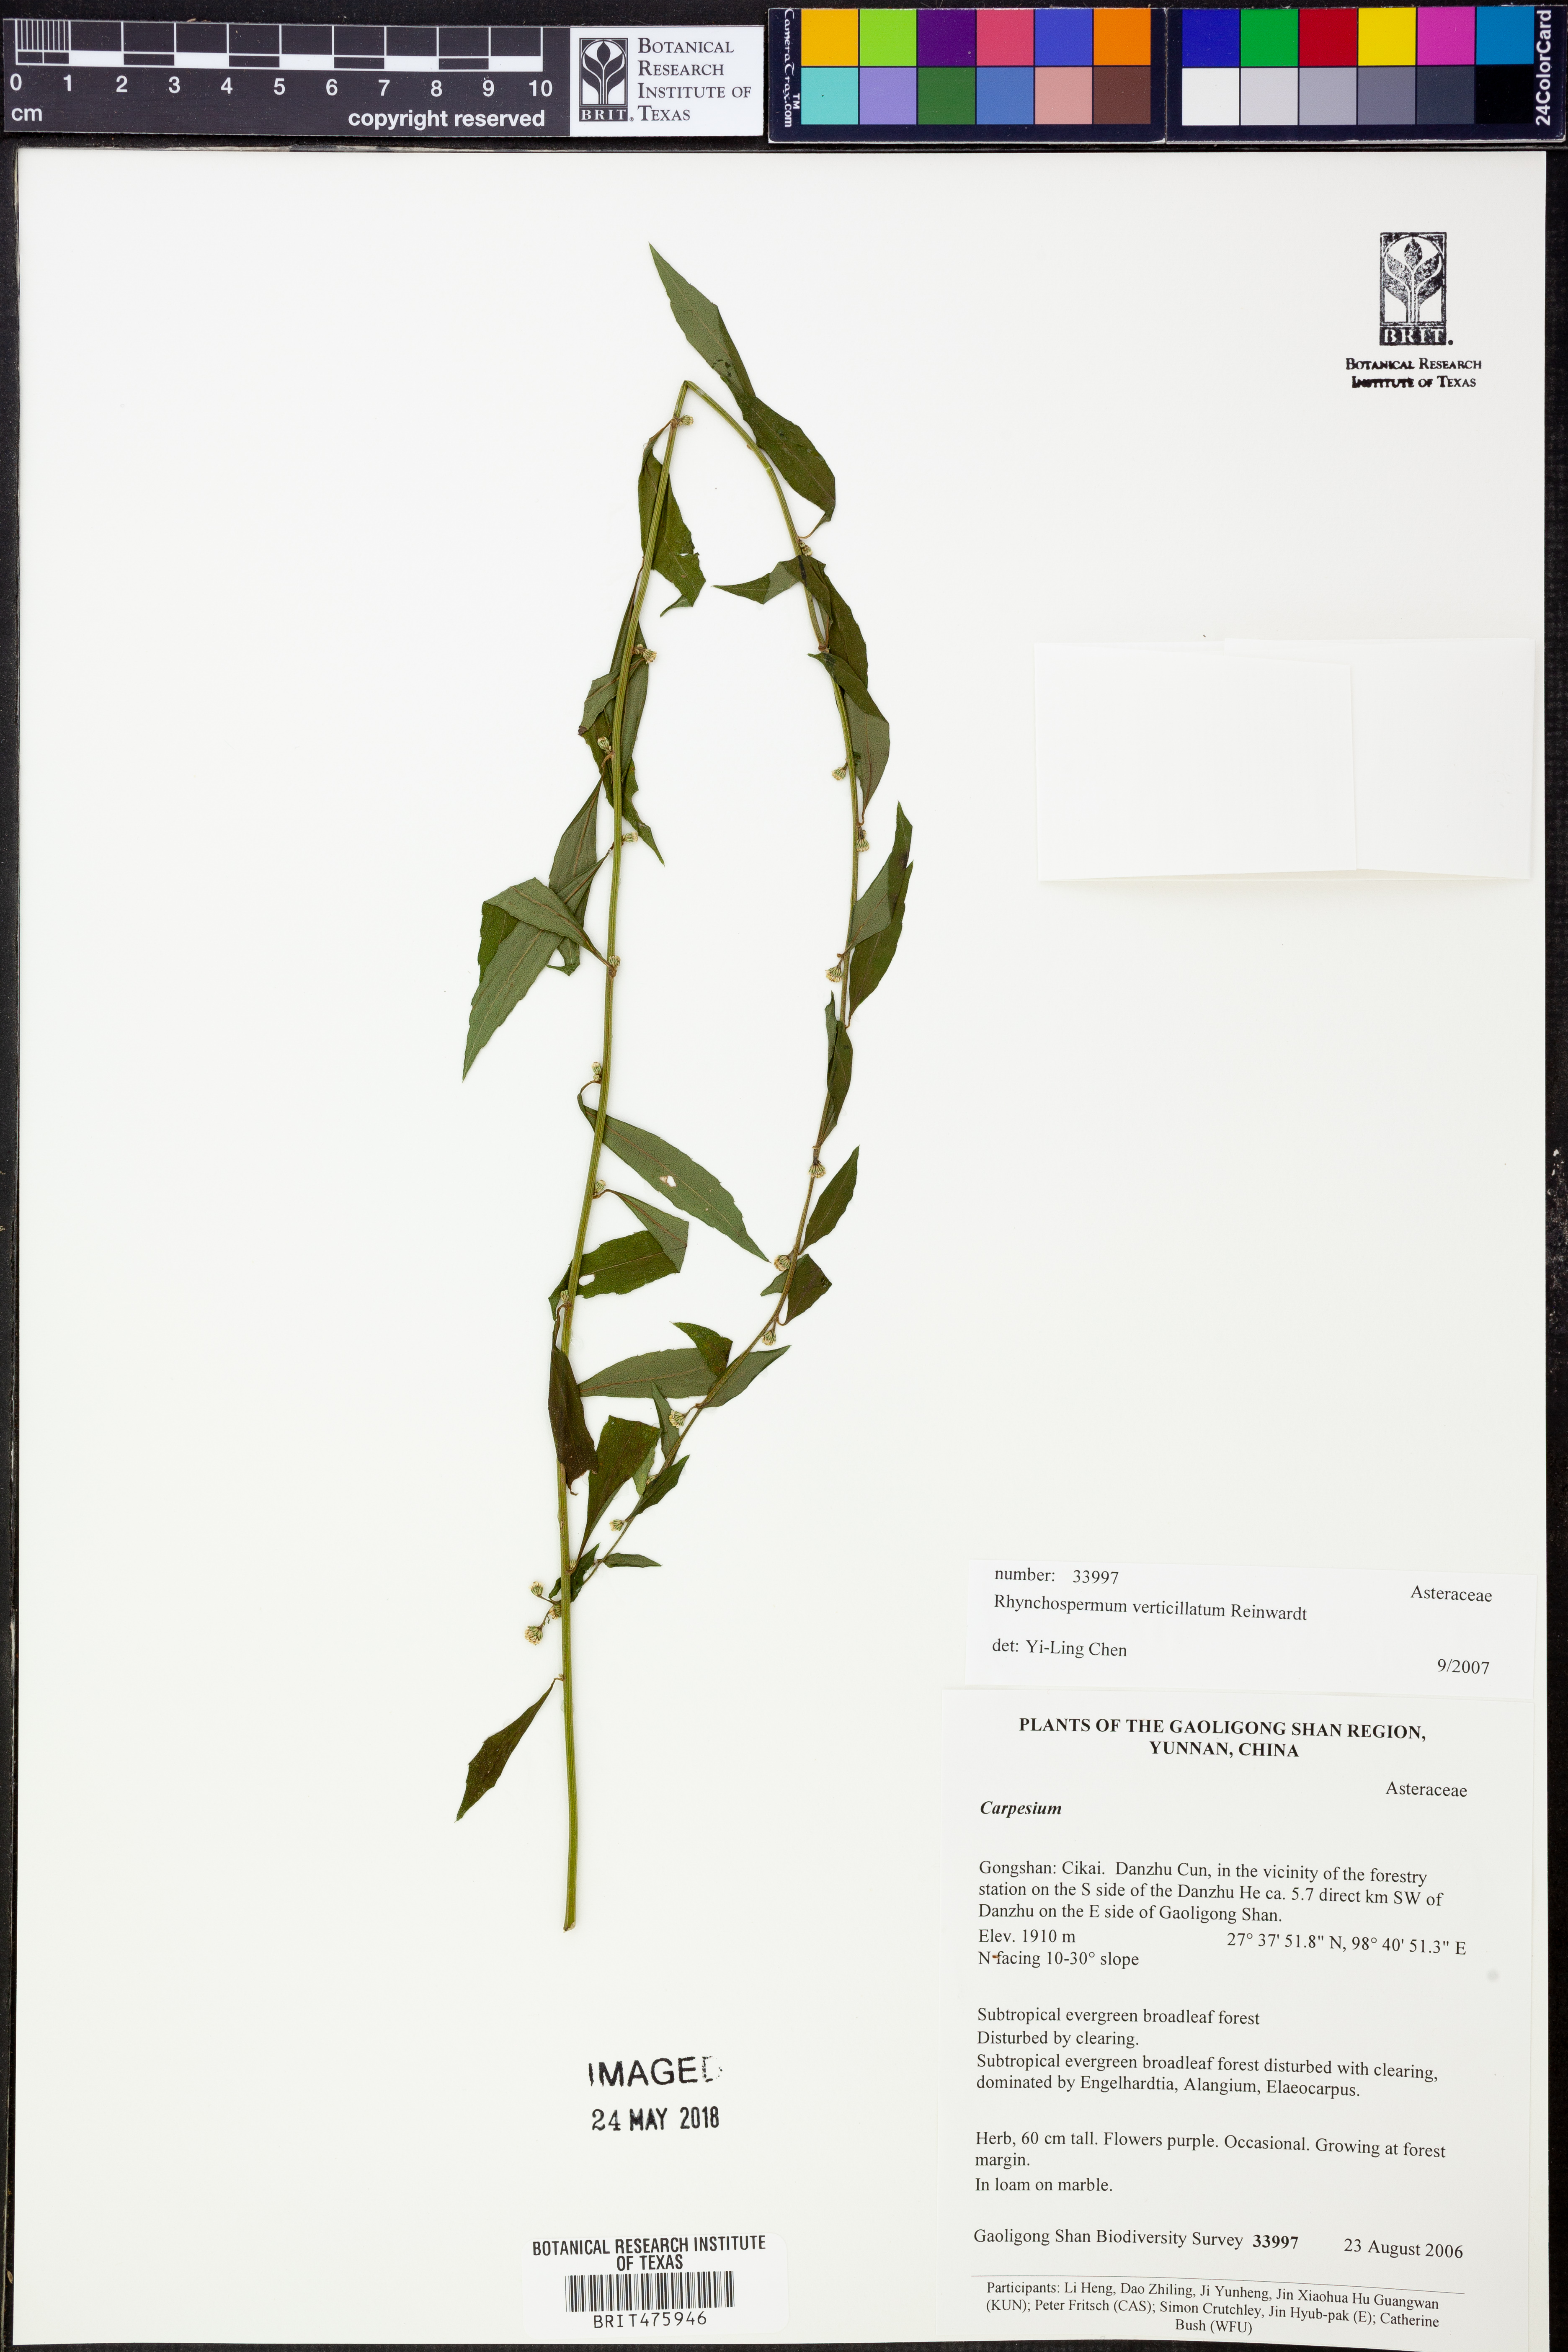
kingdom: Plantae
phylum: Tracheophyta
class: Magnoliopsida
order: Asterales
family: Asteraceae
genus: Rhynchospermum
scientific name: Rhynchospermum verticillatum
